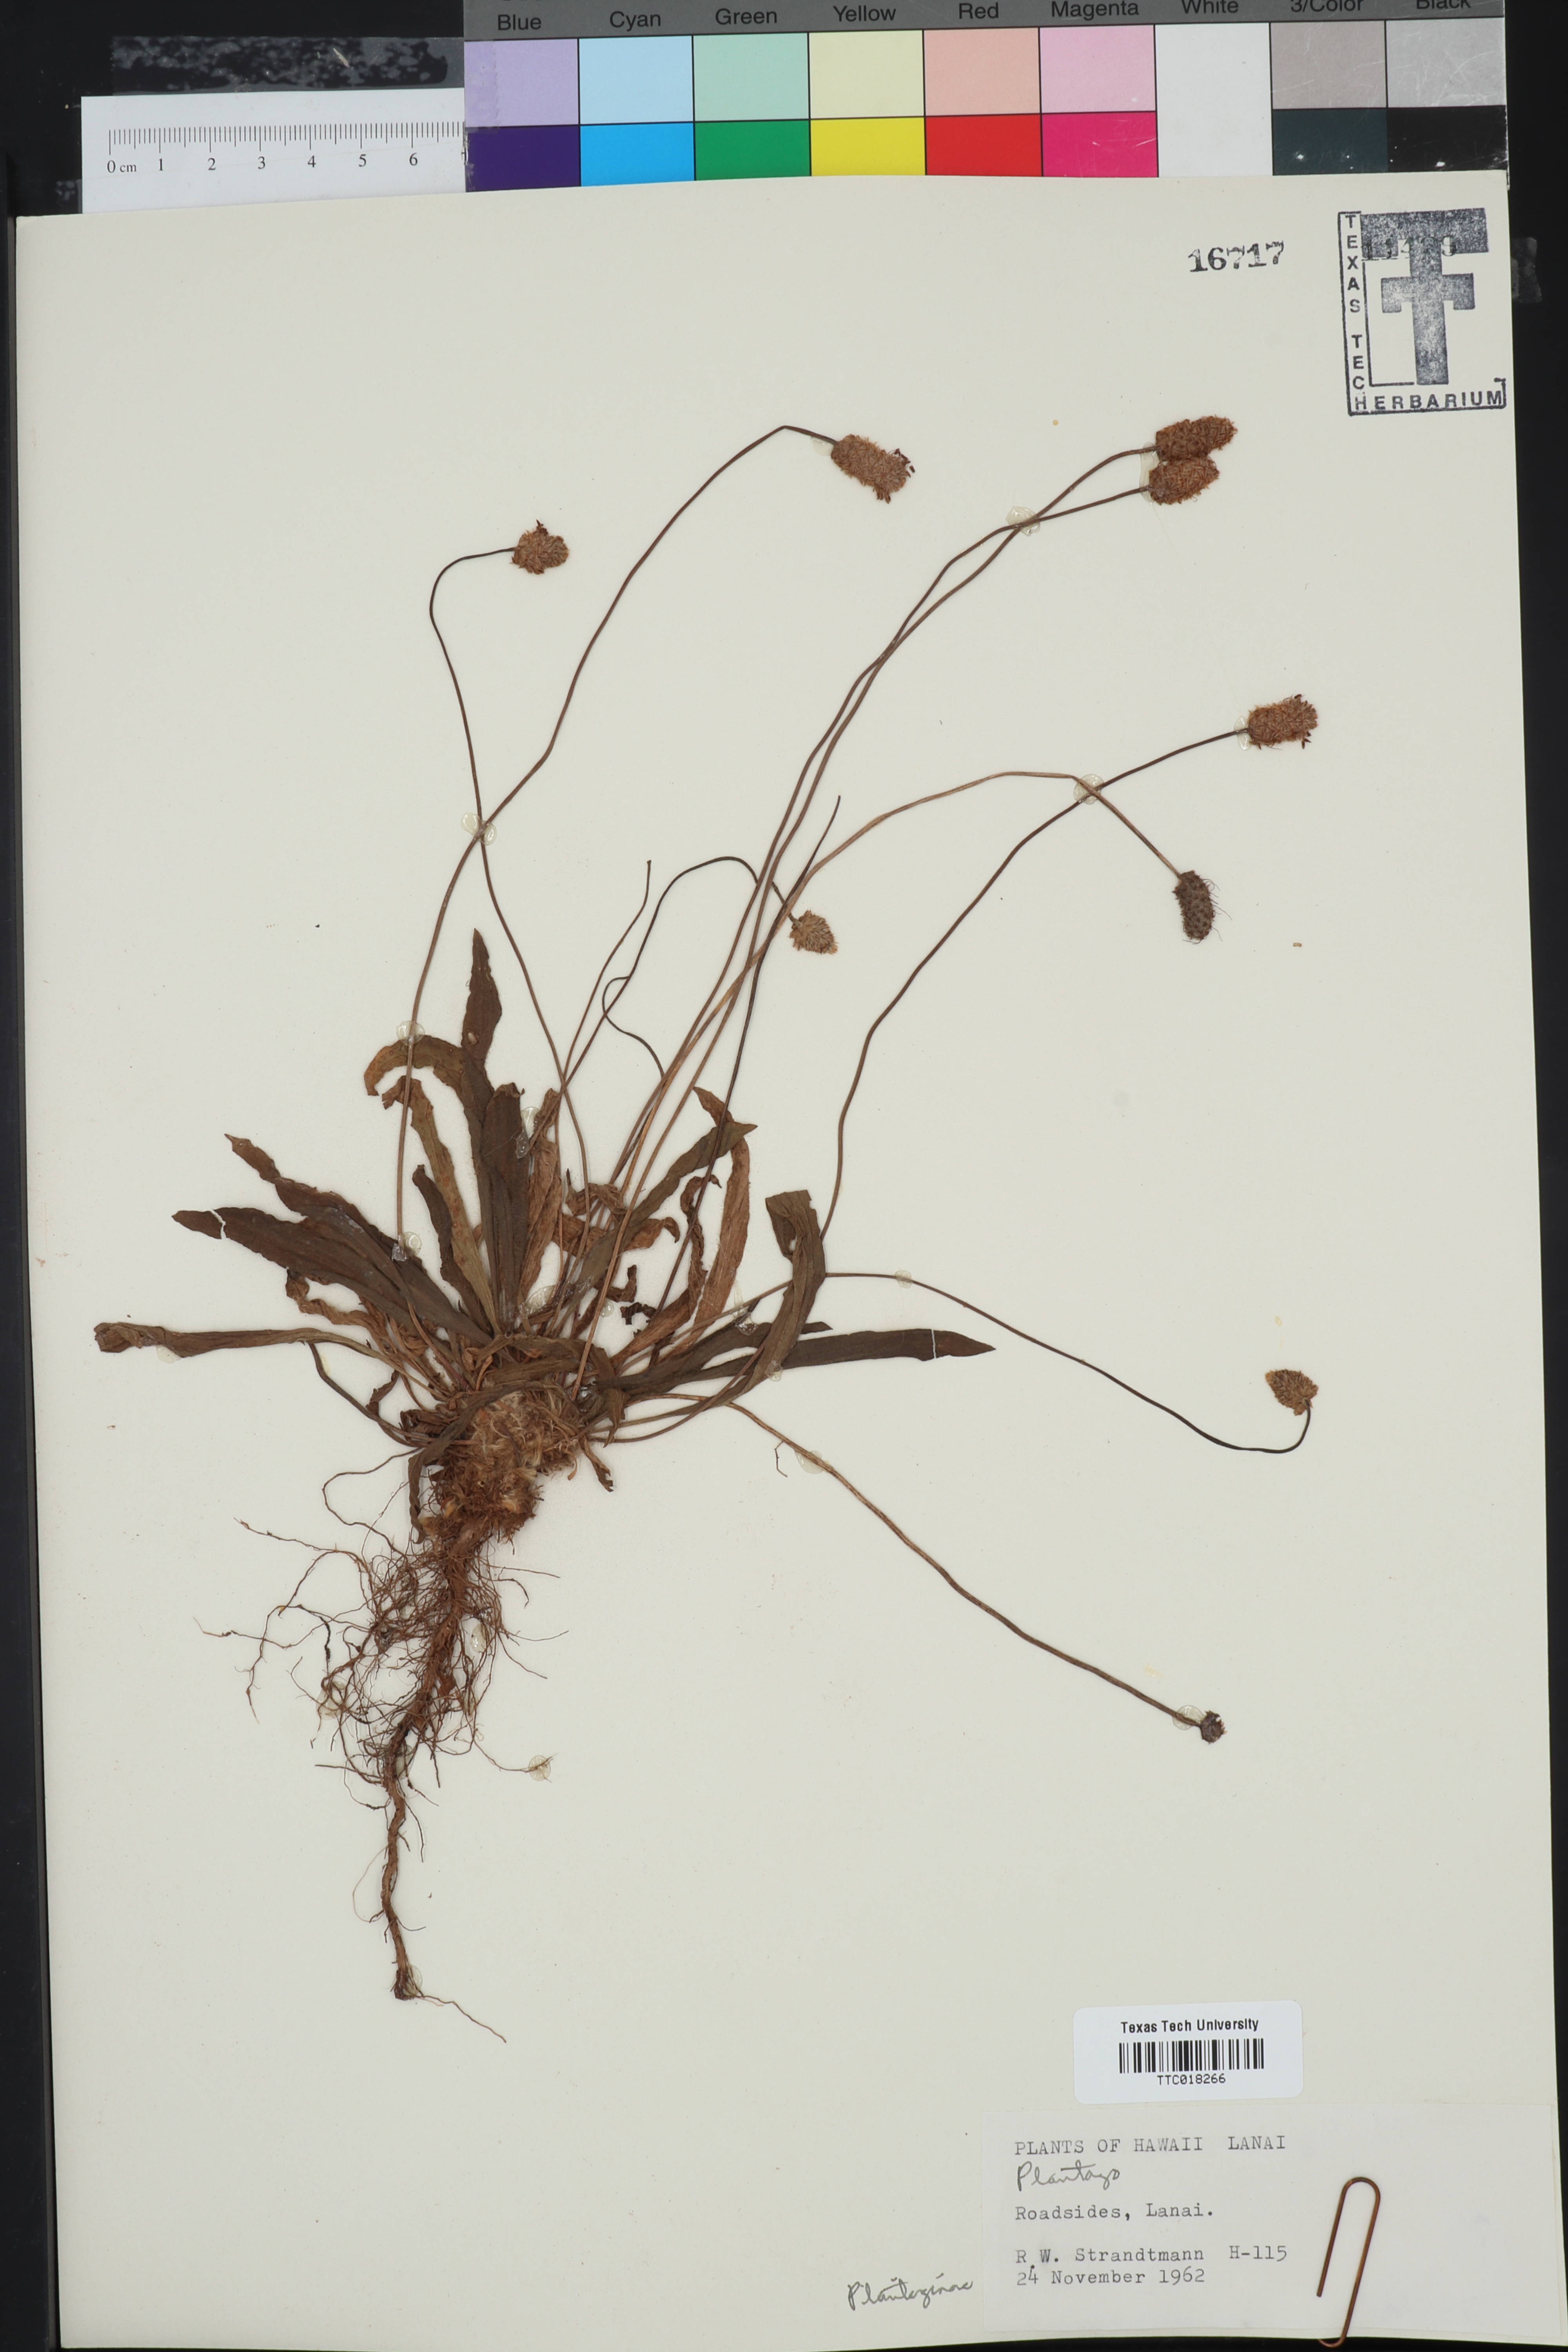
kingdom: Plantae
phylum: Tracheophyta
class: Magnoliopsida
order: Lamiales
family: Plantaginaceae
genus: Plantago
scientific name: Plantago
